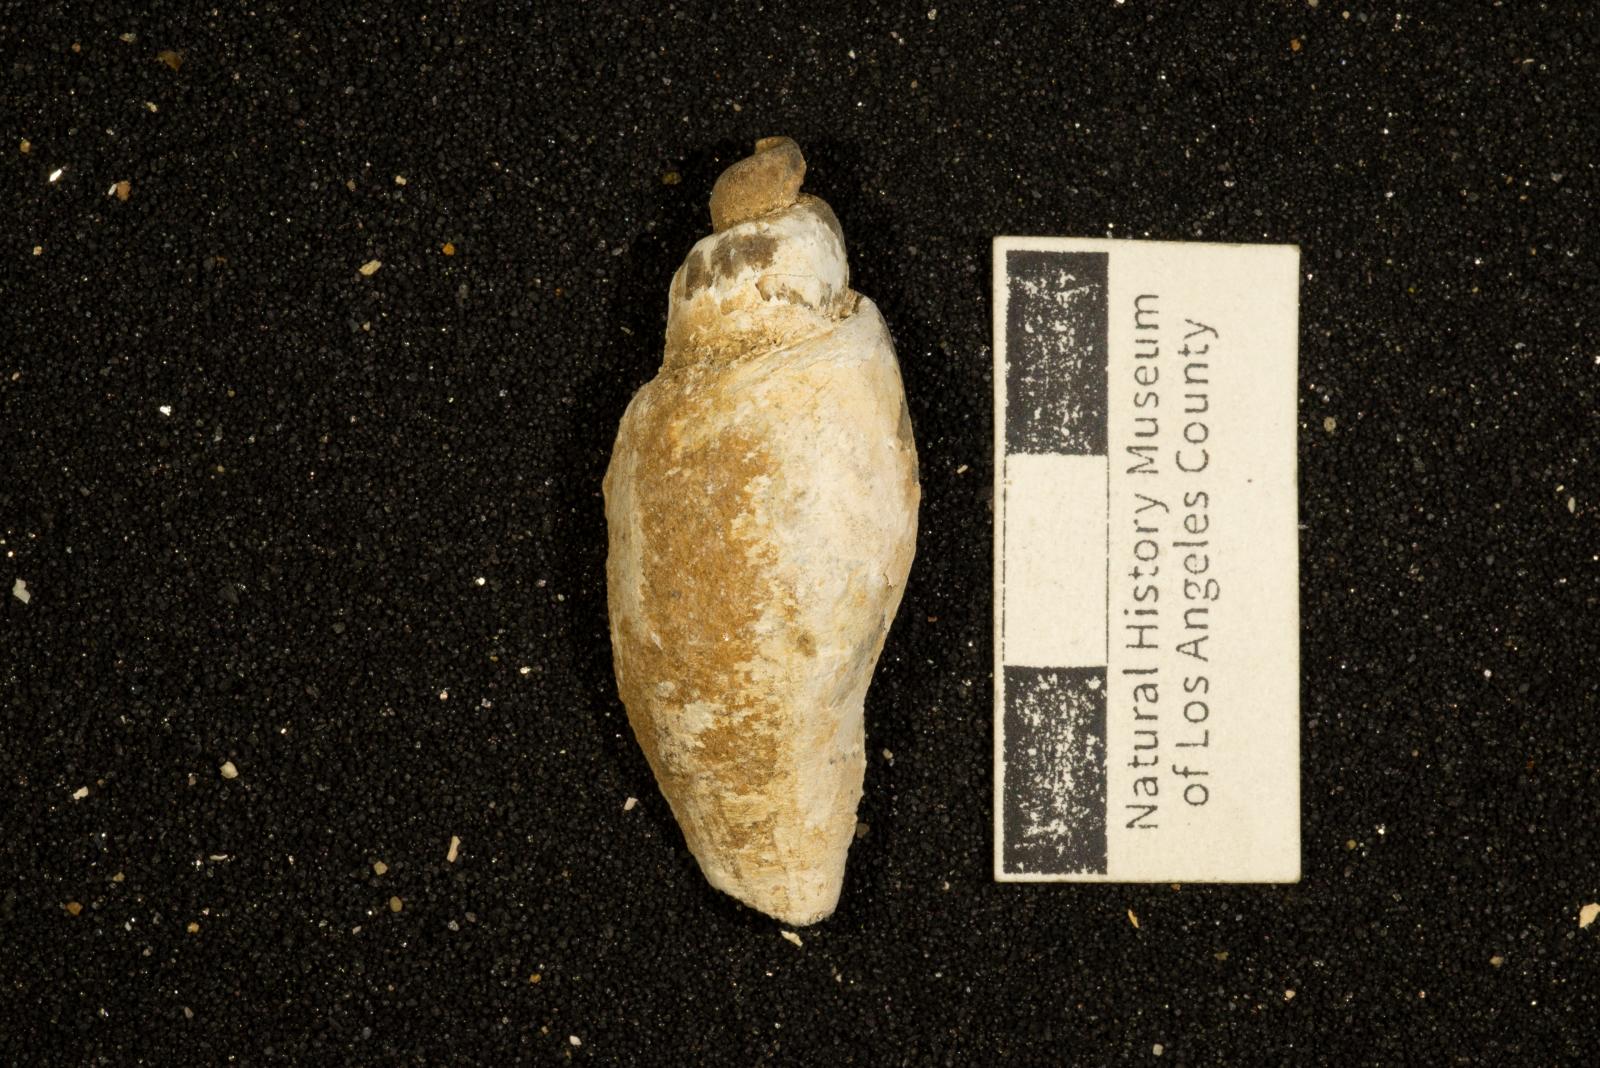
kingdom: Animalia
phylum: Mollusca
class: Gastropoda
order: Neogastropoda
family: Pholidotomidae
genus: Volutoderma
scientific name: Volutoderma perissa
